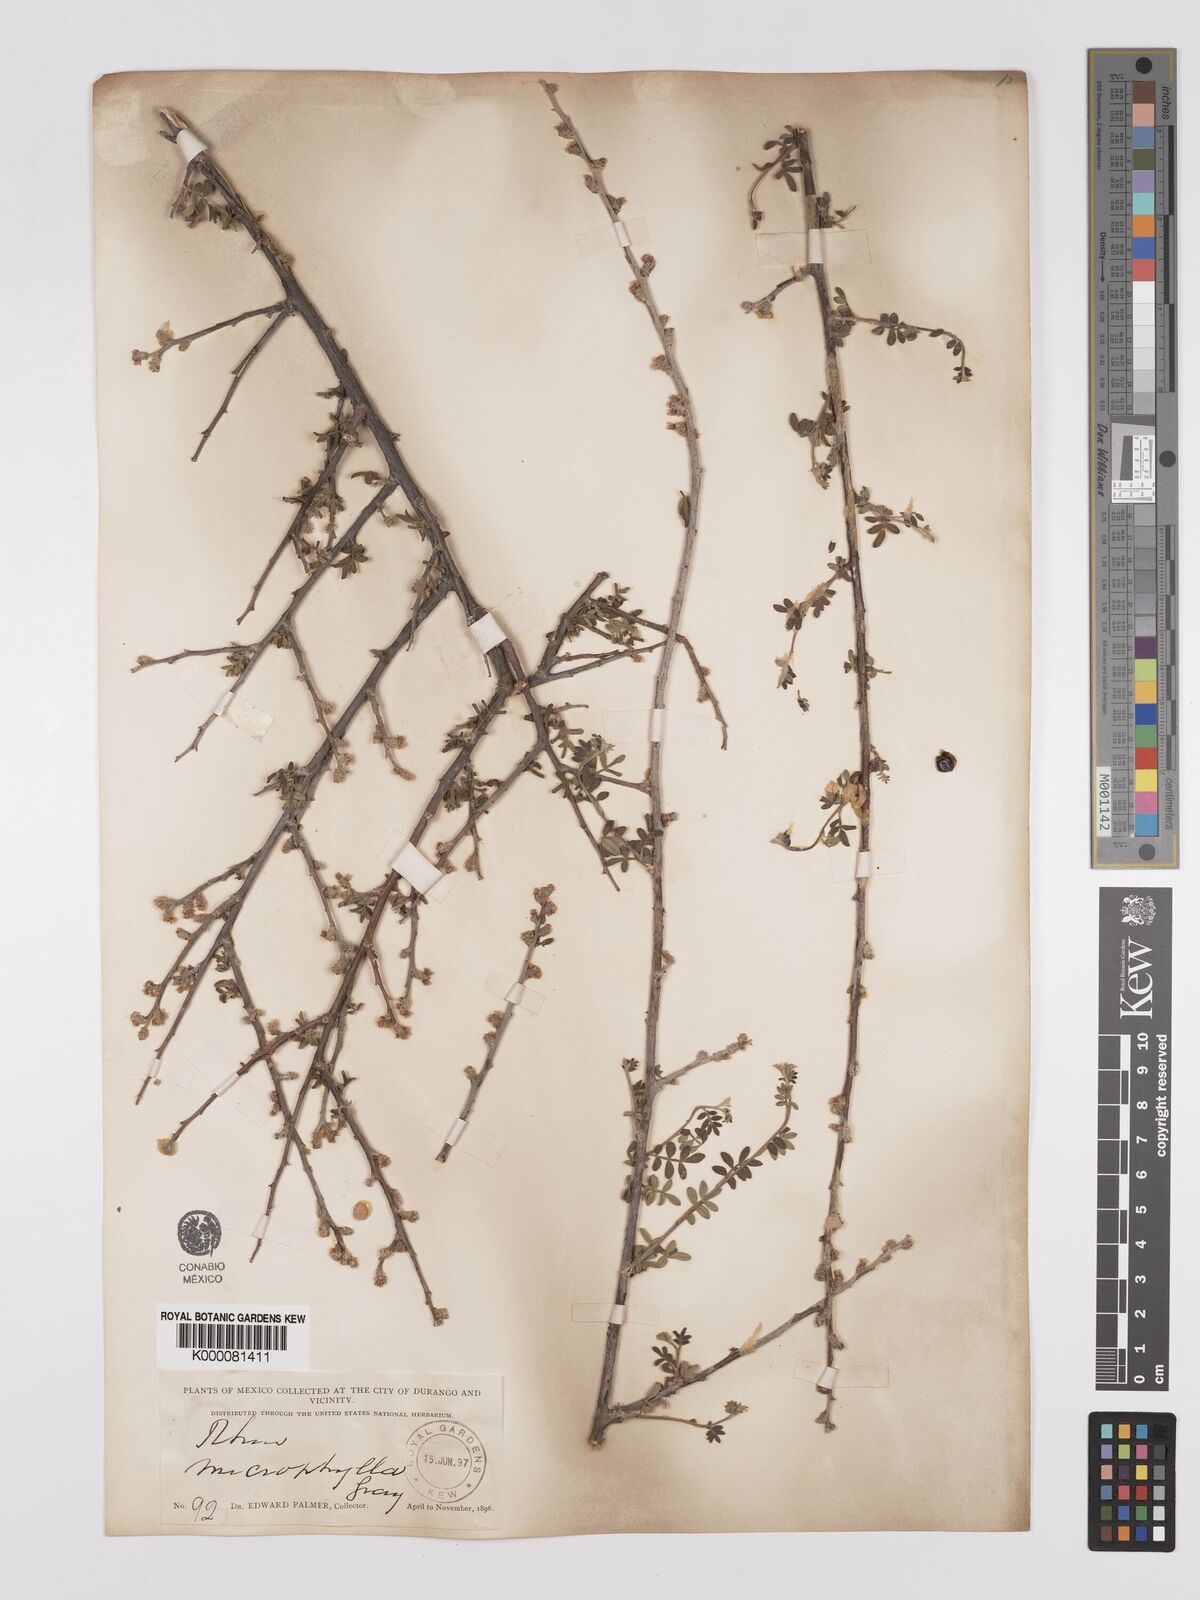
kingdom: Plantae
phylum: Tracheophyta
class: Magnoliopsida
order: Sapindales
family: Anacardiaceae
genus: Rhus
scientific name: Rhus
